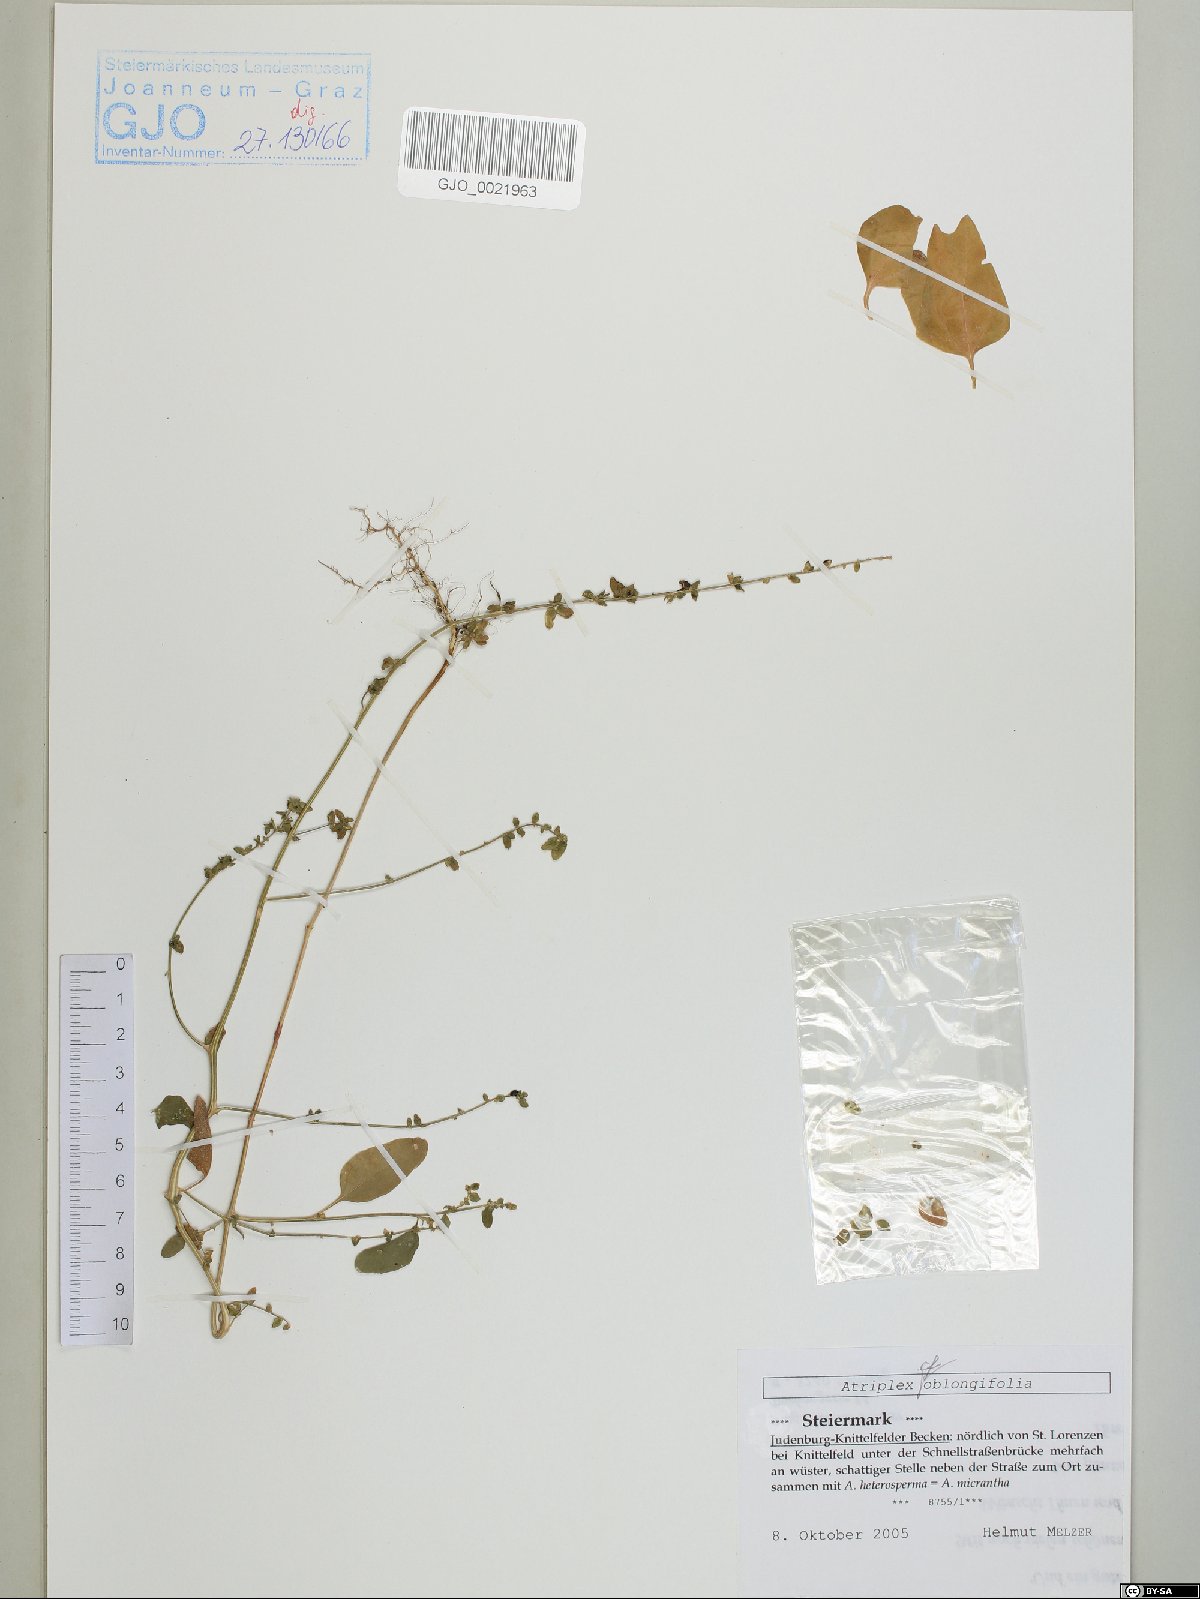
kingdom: Plantae
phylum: Tracheophyta
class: Magnoliopsida
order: Caryophyllales
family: Amaranthaceae
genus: Atriplex
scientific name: Atriplex oblongifolia
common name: Oblongleaf orache
